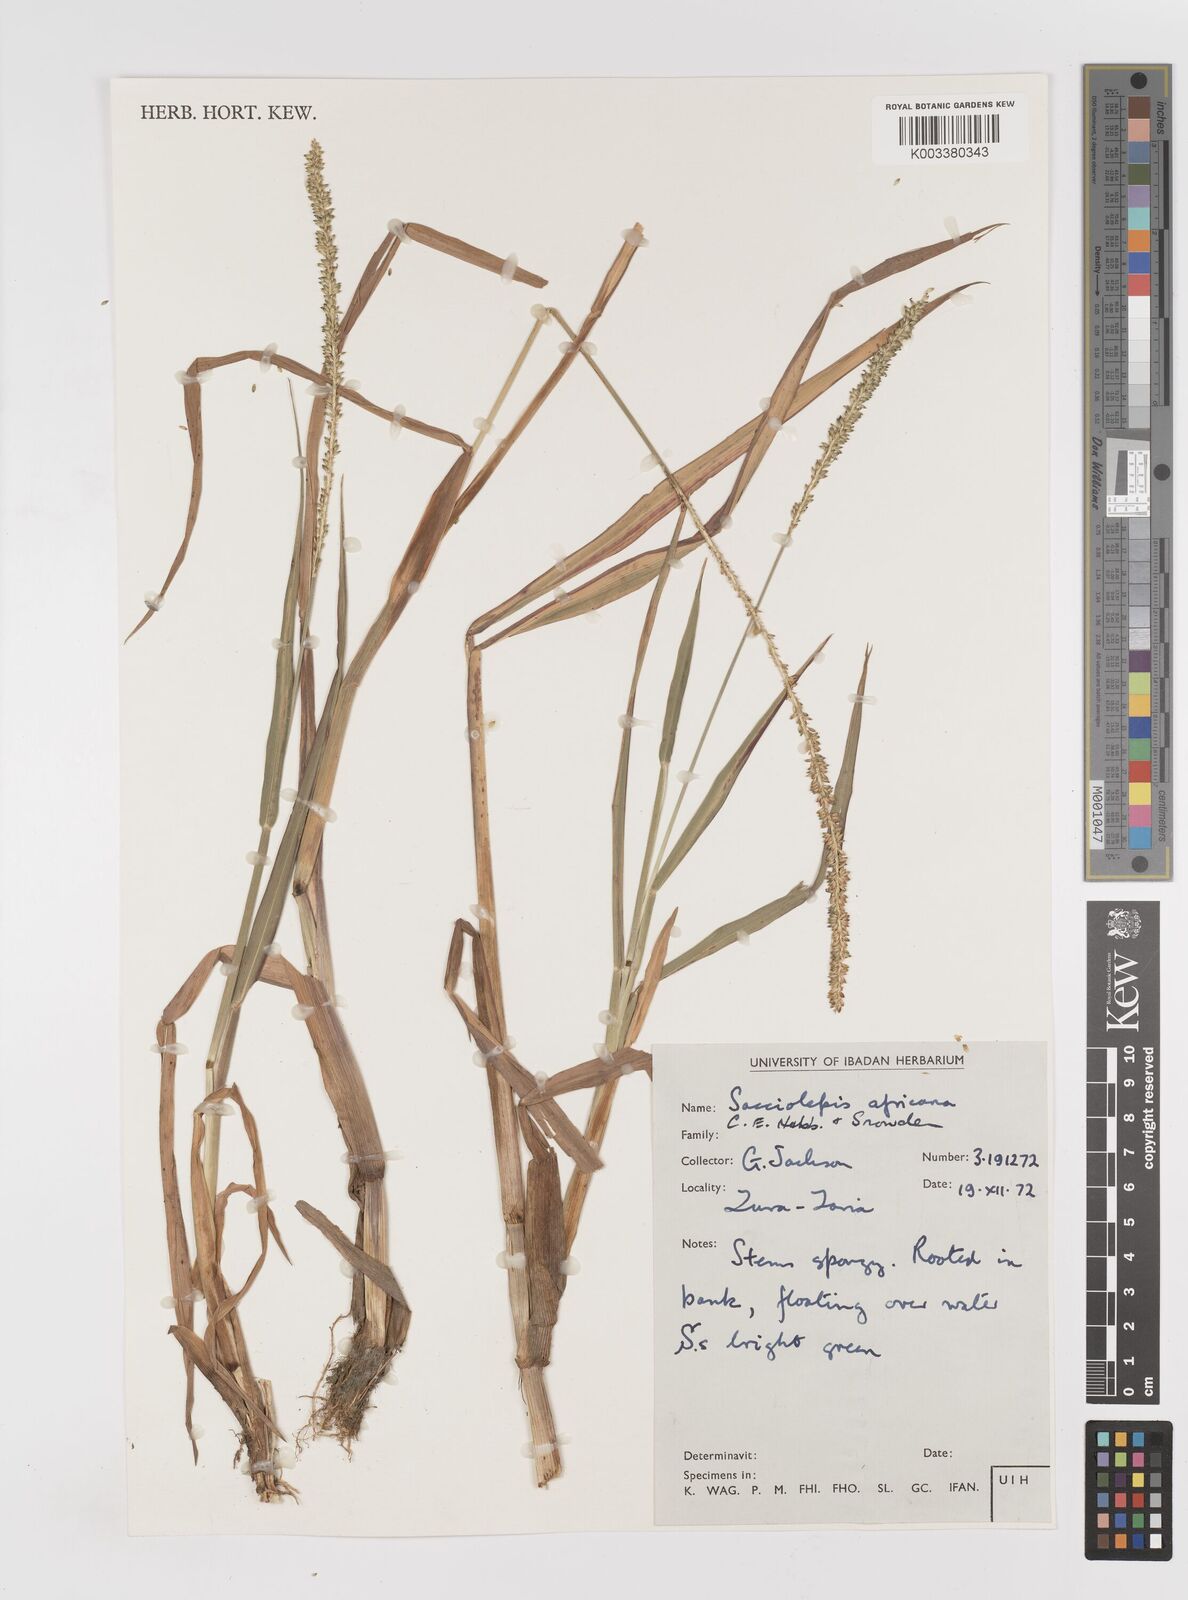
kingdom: Plantae
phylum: Tracheophyta
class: Liliopsida
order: Poales
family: Poaceae
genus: Sacciolepis
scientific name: Sacciolepis africana
